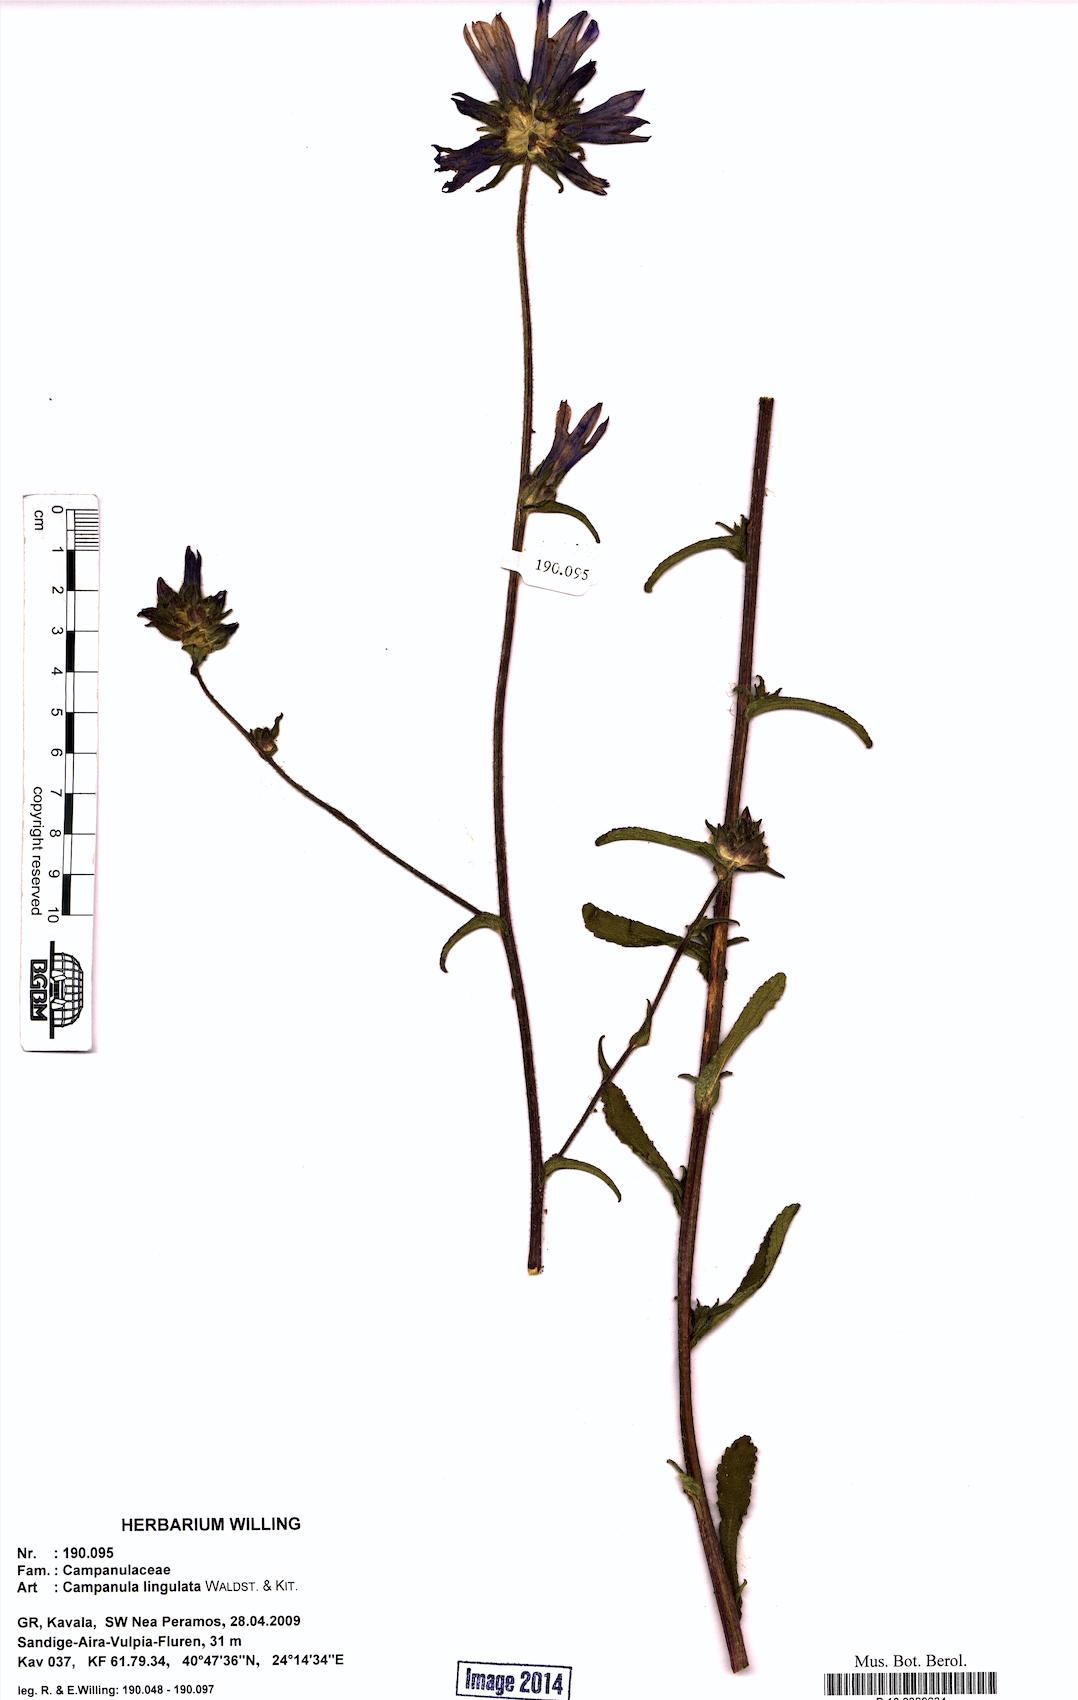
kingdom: Plantae
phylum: Tracheophyta
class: Magnoliopsida
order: Asterales
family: Campanulaceae
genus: Campanula
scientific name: Campanula lingulata
